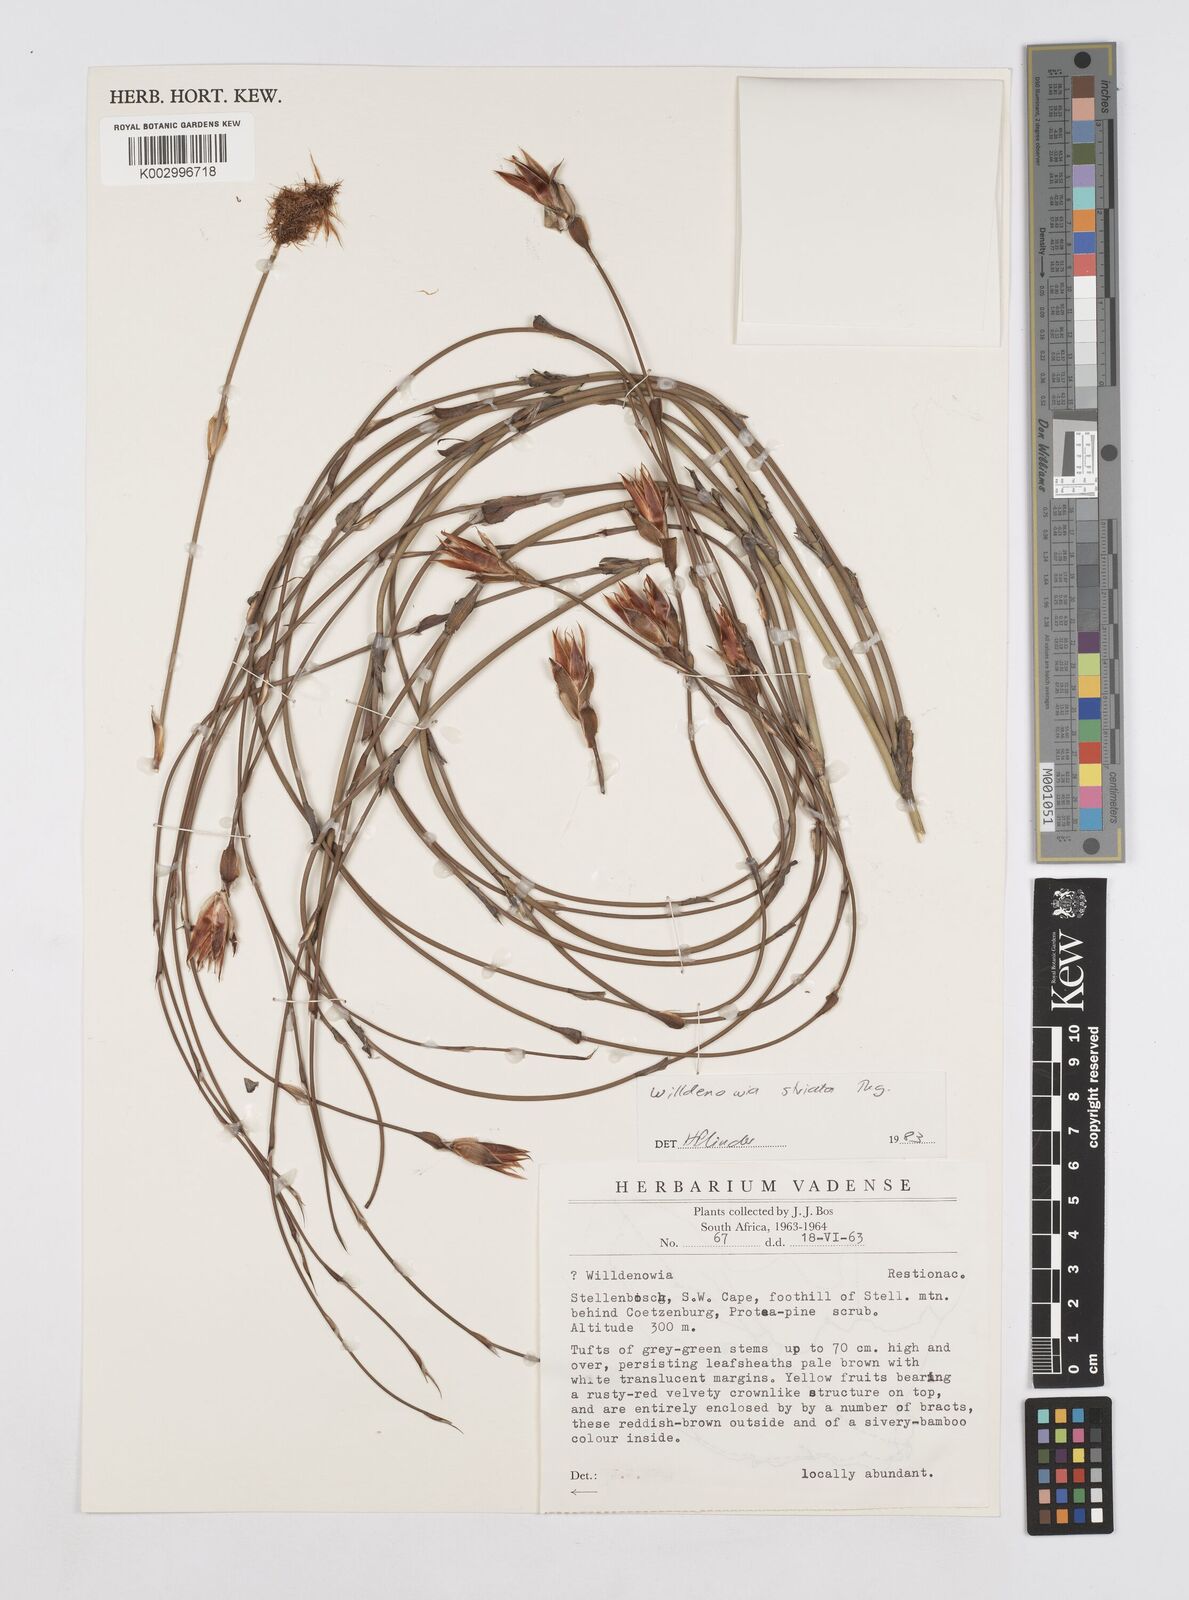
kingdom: Plantae
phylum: Tracheophyta
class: Liliopsida
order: Poales
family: Restionaceae
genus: Willdenowia
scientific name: Willdenowia incurvata
